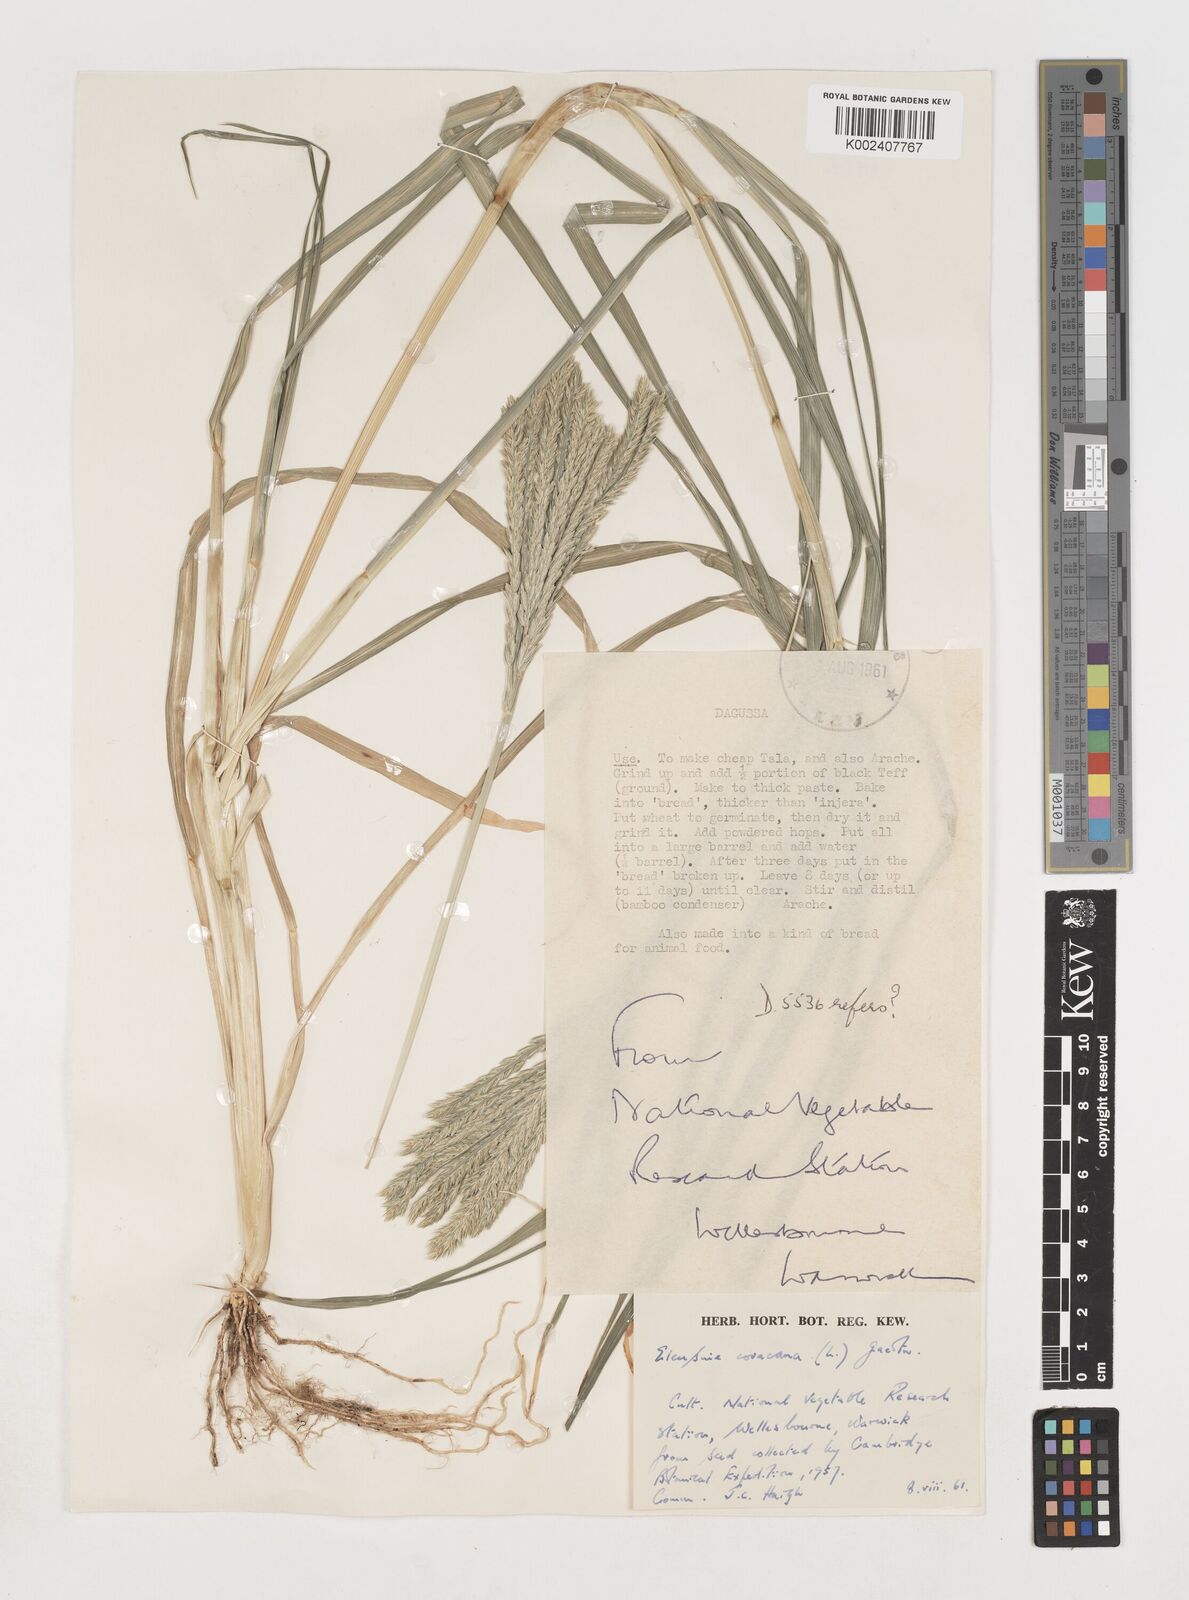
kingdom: Plantae
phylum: Tracheophyta
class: Liliopsida
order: Poales
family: Poaceae
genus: Eleusine
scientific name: Eleusine coracana
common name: Finger millet
